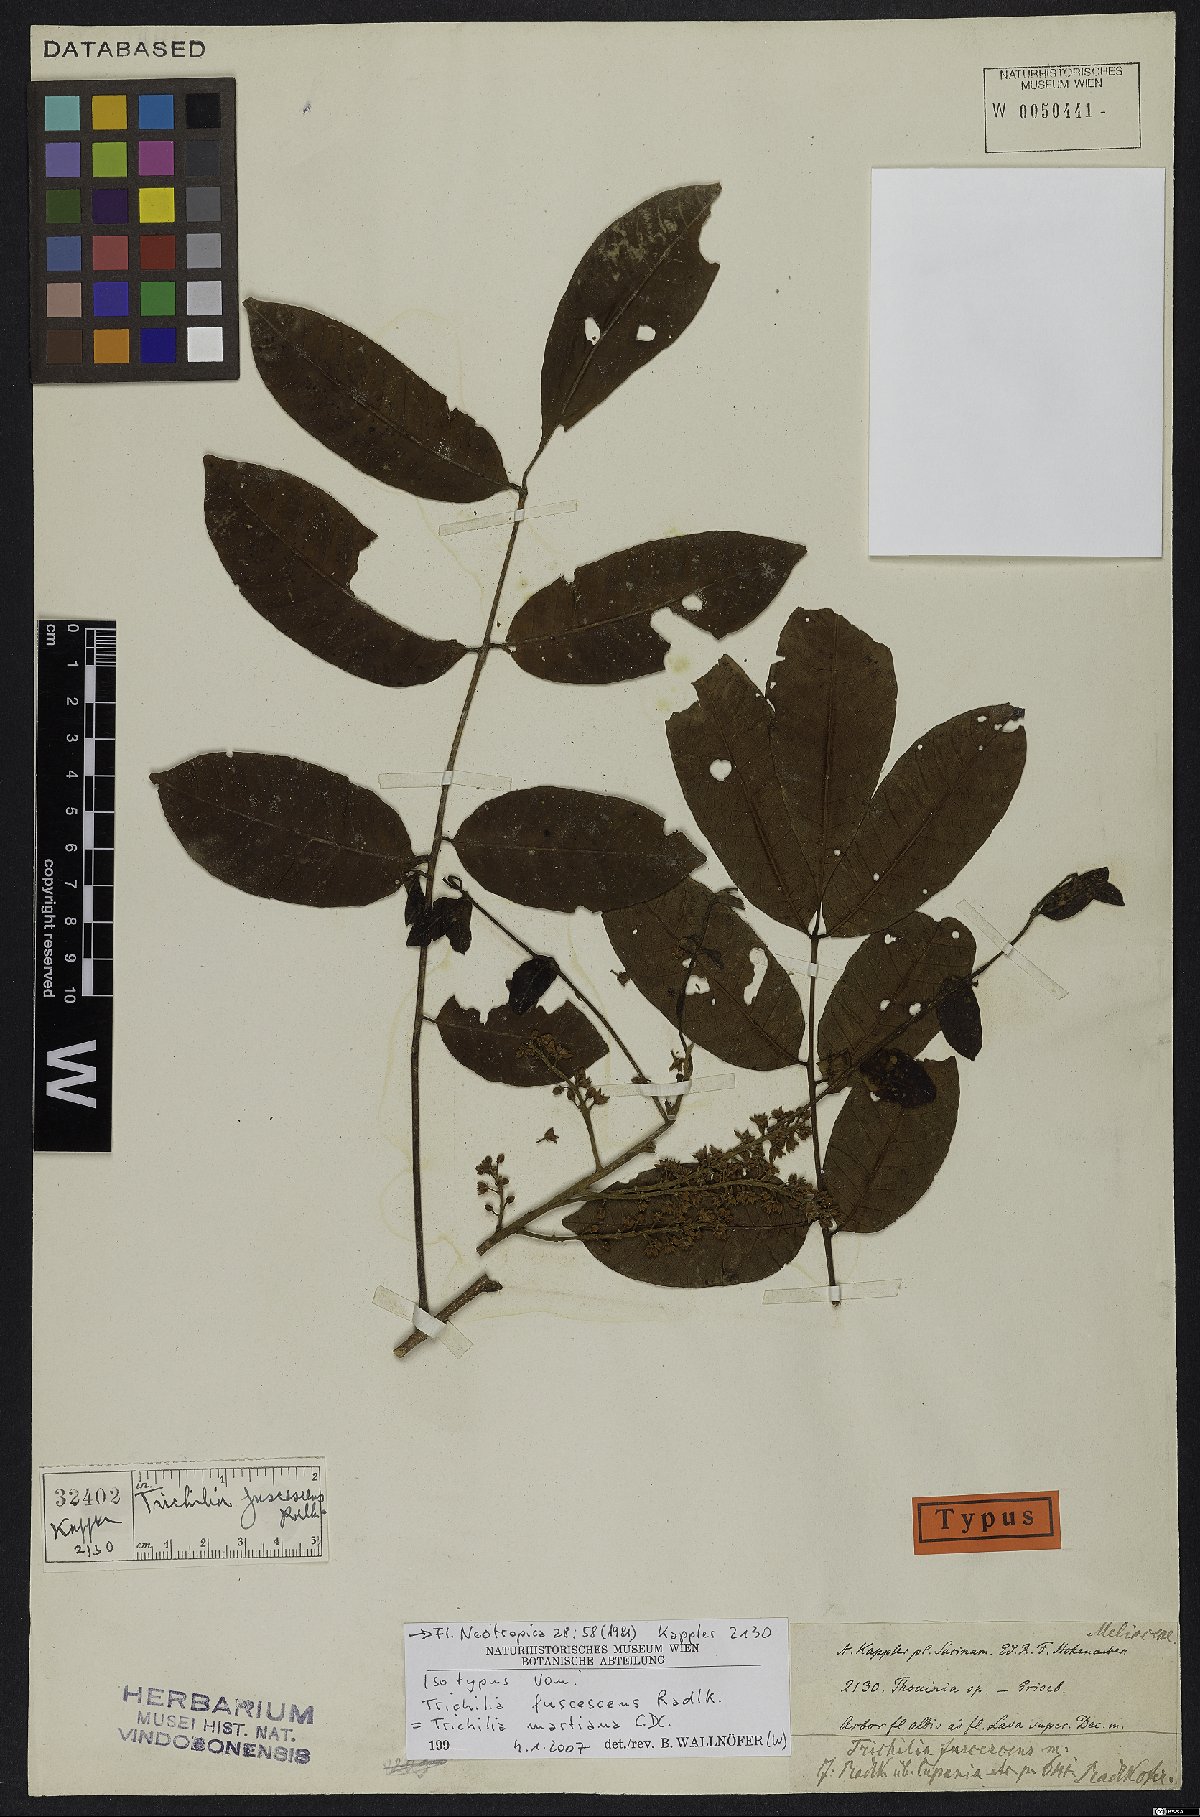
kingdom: Plantae
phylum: Tracheophyta
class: Magnoliopsida
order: Sapindales
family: Meliaceae
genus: Trichilia
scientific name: Trichilia martiana
